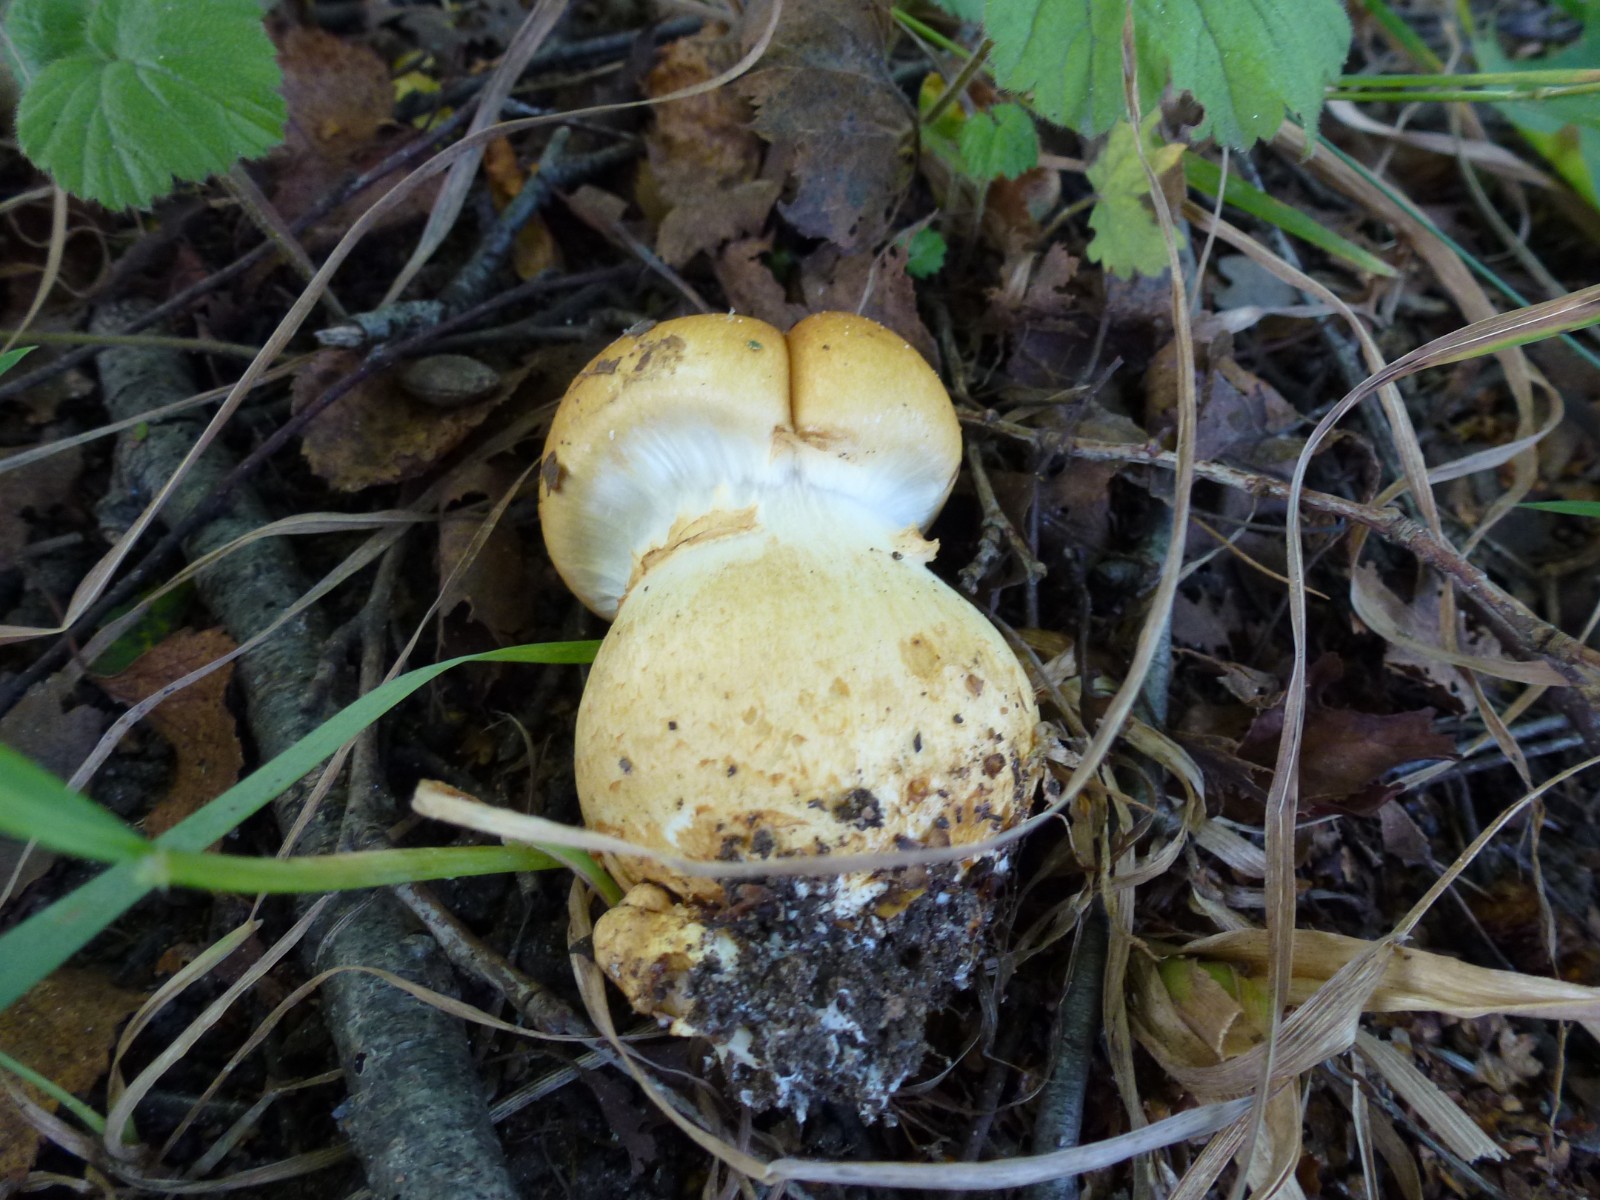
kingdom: Fungi
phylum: Basidiomycota
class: Agaricomycetes
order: Agaricales
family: Cortinariaceae
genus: Phlegmacium
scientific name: Phlegmacium triumphans
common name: gulbæltet slørhat
